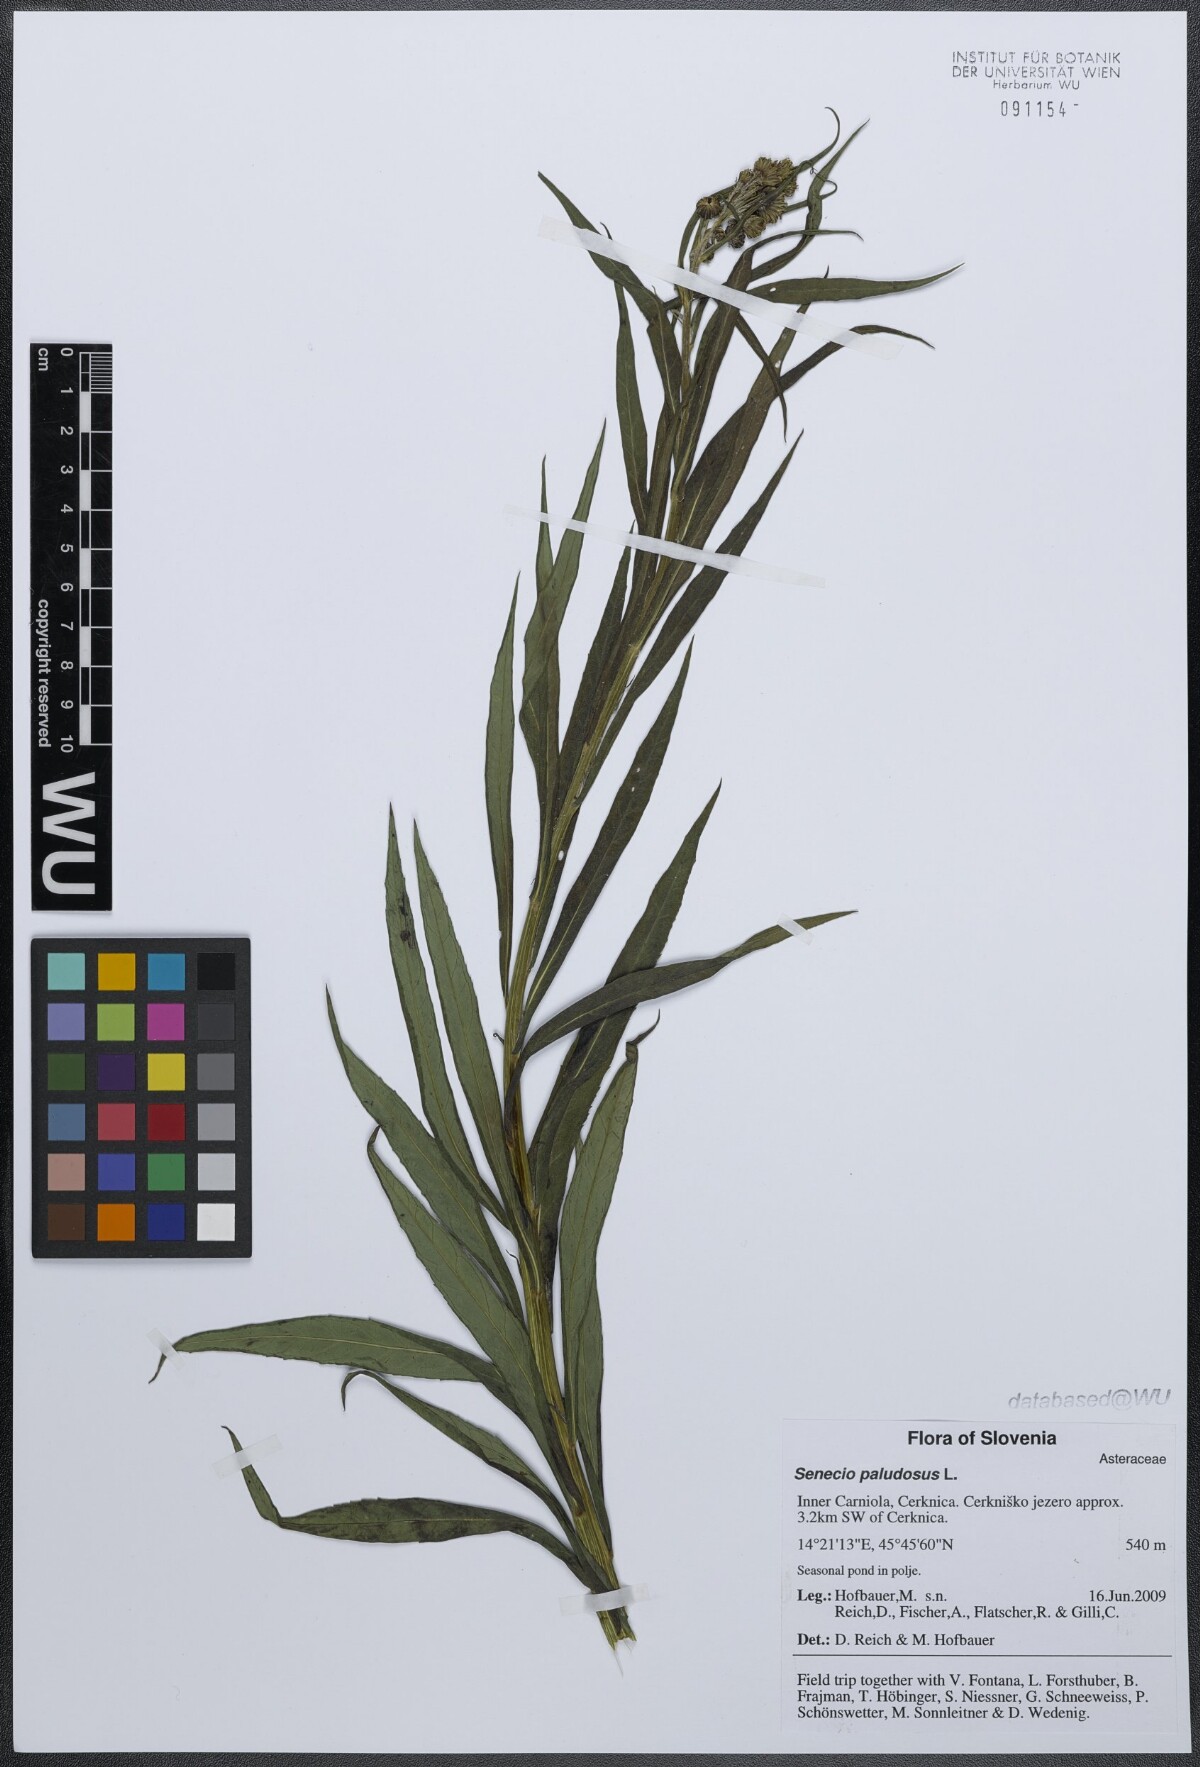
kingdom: Plantae
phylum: Tracheophyta
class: Magnoliopsida
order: Asterales
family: Asteraceae
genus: Jacobaea
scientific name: Jacobaea paludosa
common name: Fen ragwort
